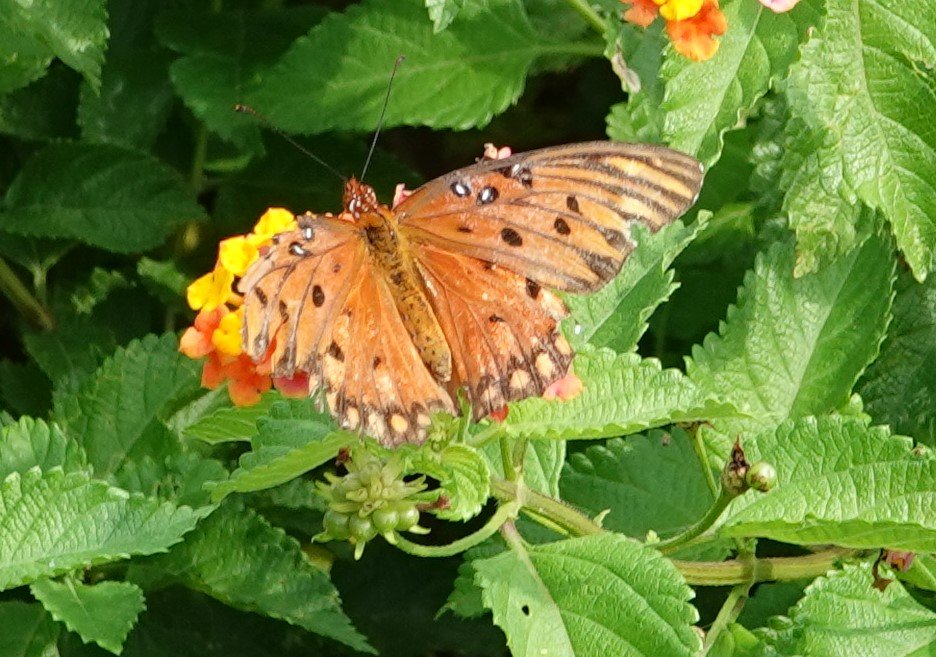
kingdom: Animalia
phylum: Arthropoda
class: Insecta
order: Lepidoptera
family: Nymphalidae
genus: Dione
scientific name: Dione vanillae
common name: Gulf Fritillary
